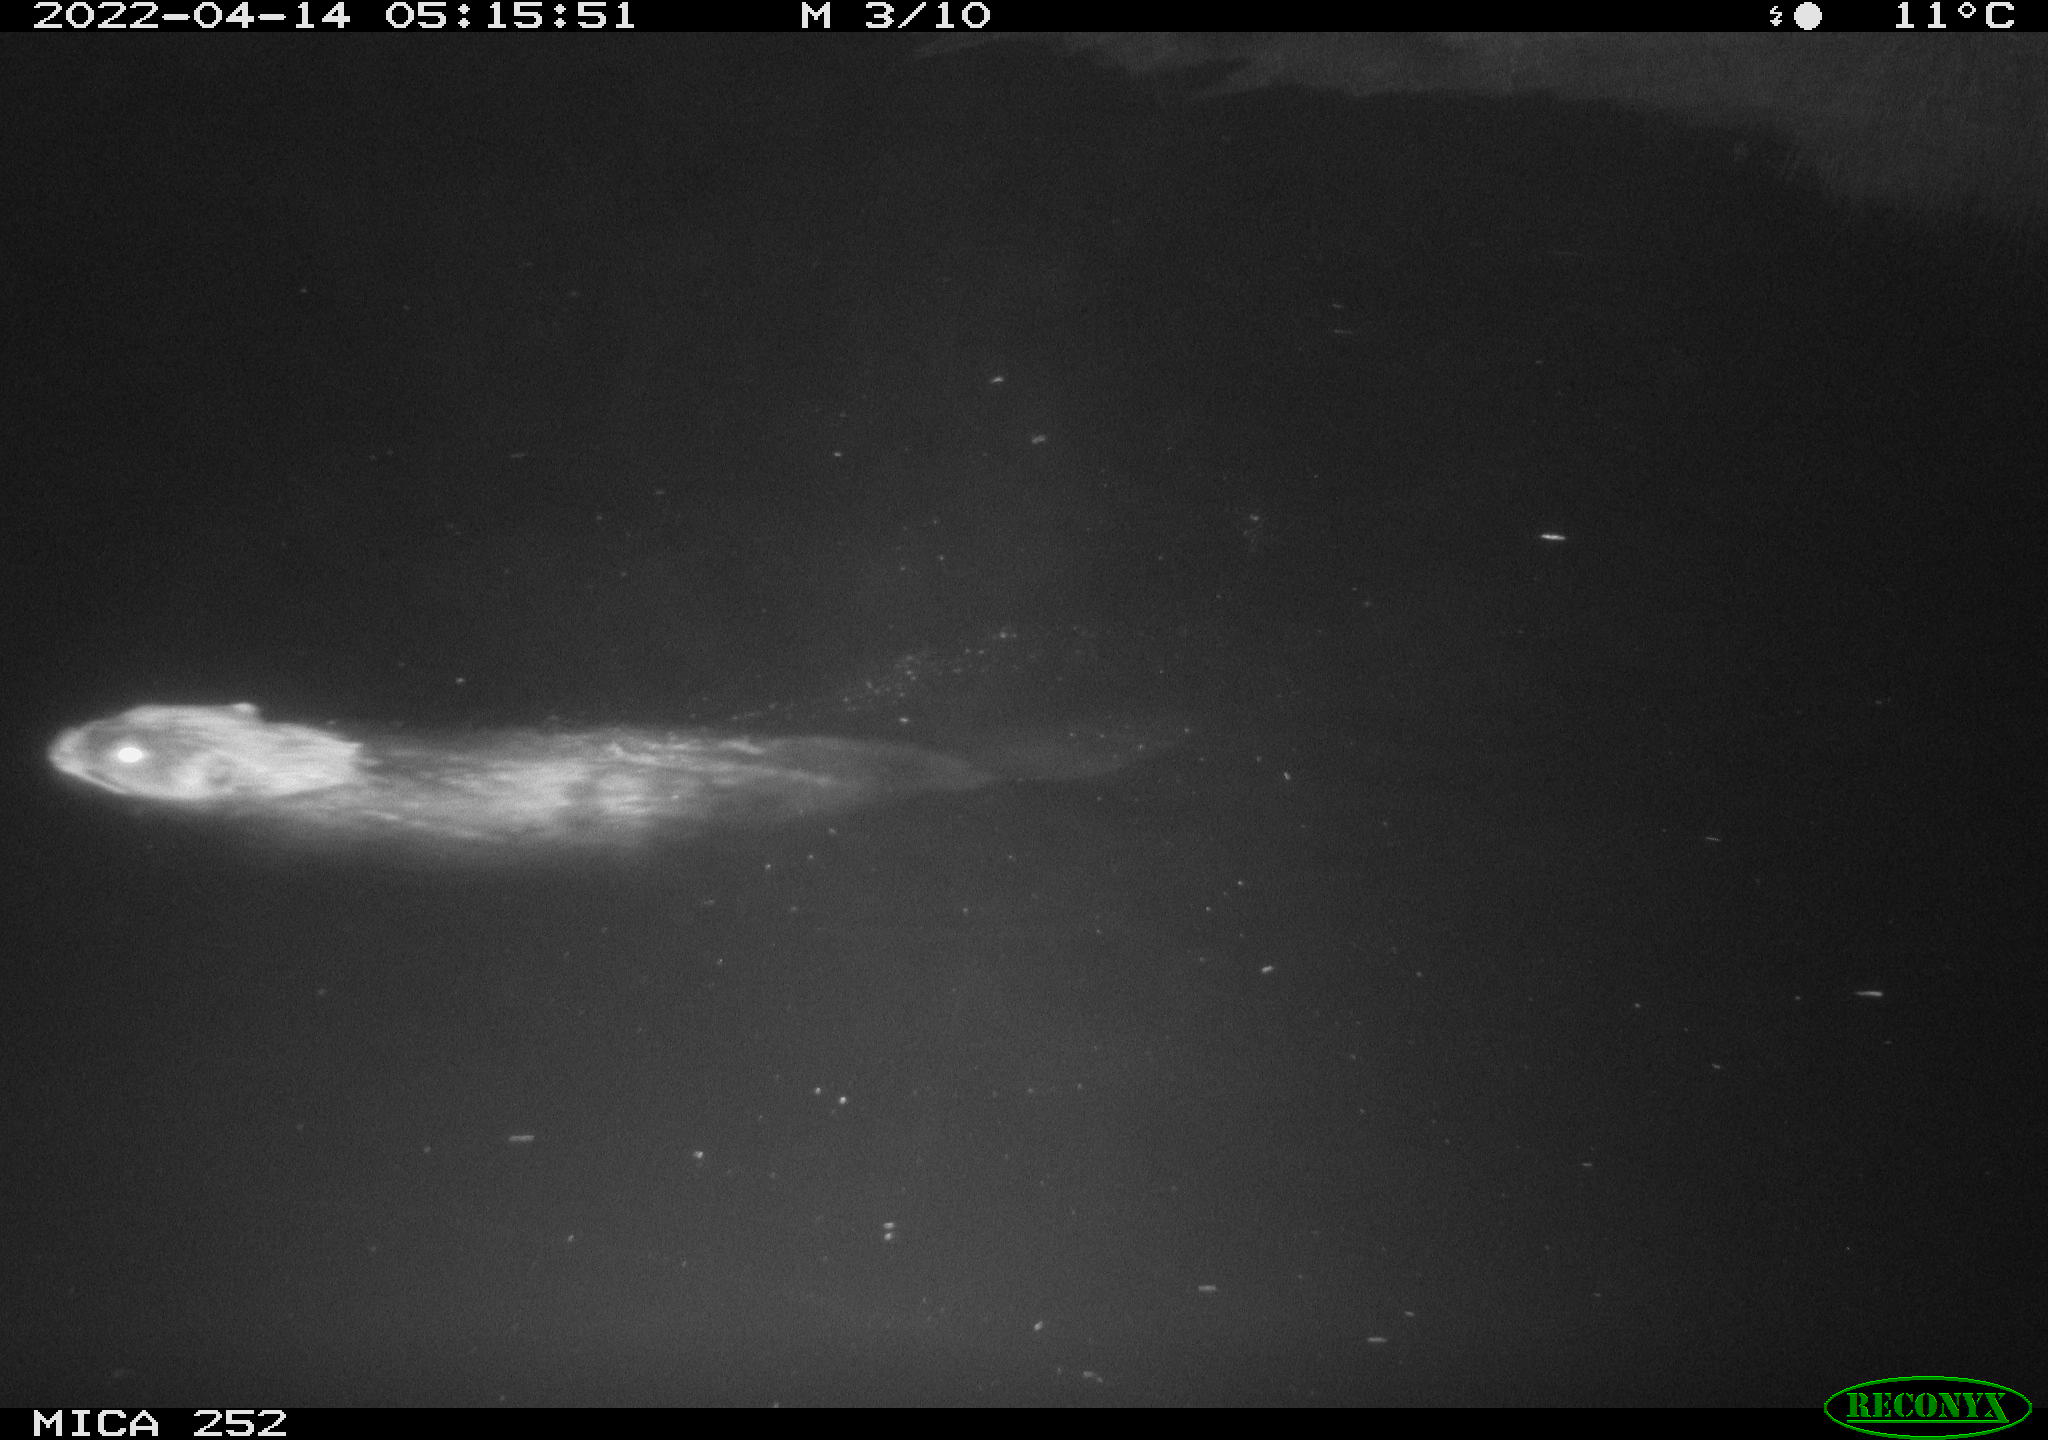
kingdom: Animalia
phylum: Chordata
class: Mammalia
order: Rodentia
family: Castoridae
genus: Castor
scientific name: Castor fiber
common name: Eurasian beaver
